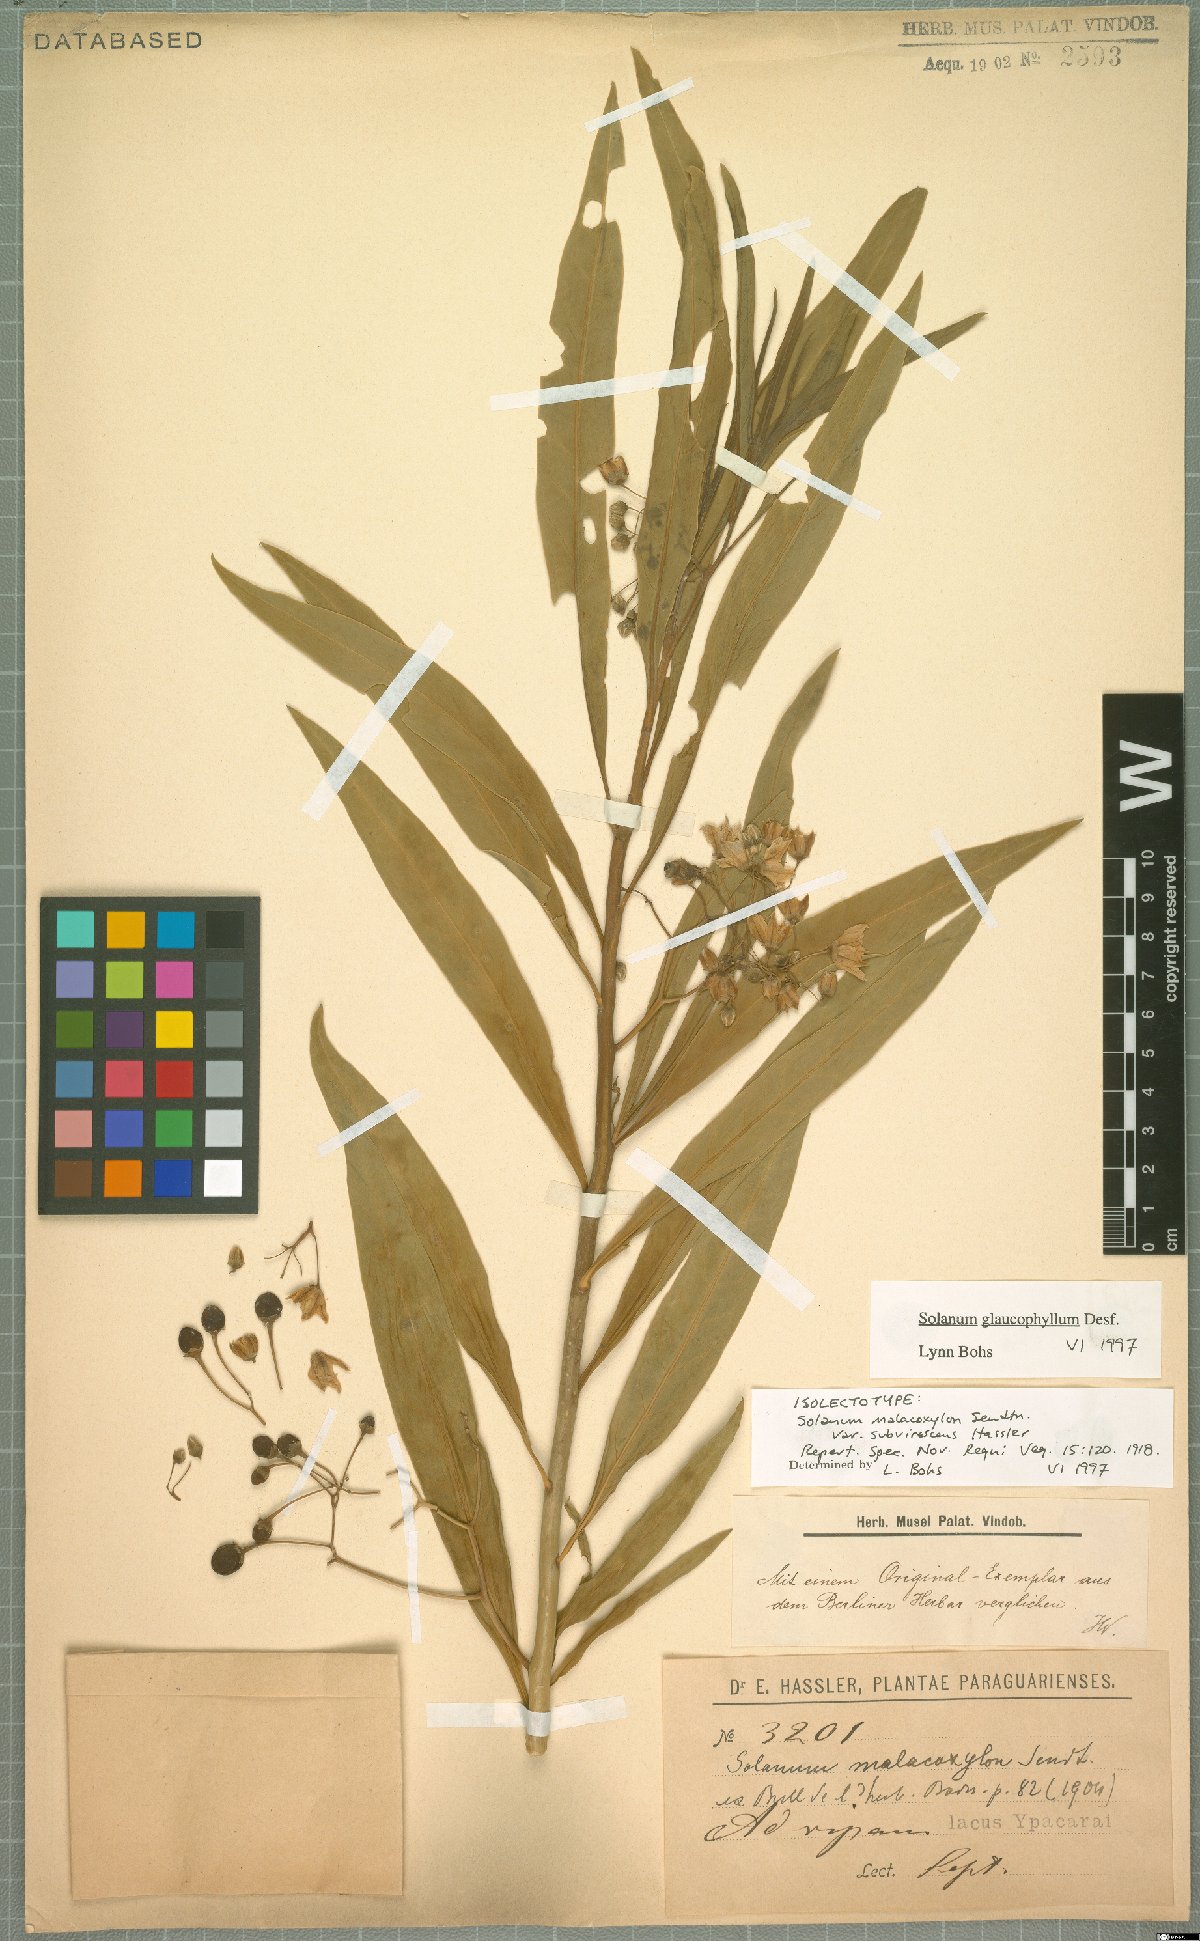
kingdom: Plantae
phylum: Tracheophyta
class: Magnoliopsida
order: Solanales
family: Solanaceae
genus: Solanum
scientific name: Solanum glaucophyllum
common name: Waxyleaf nightshade
